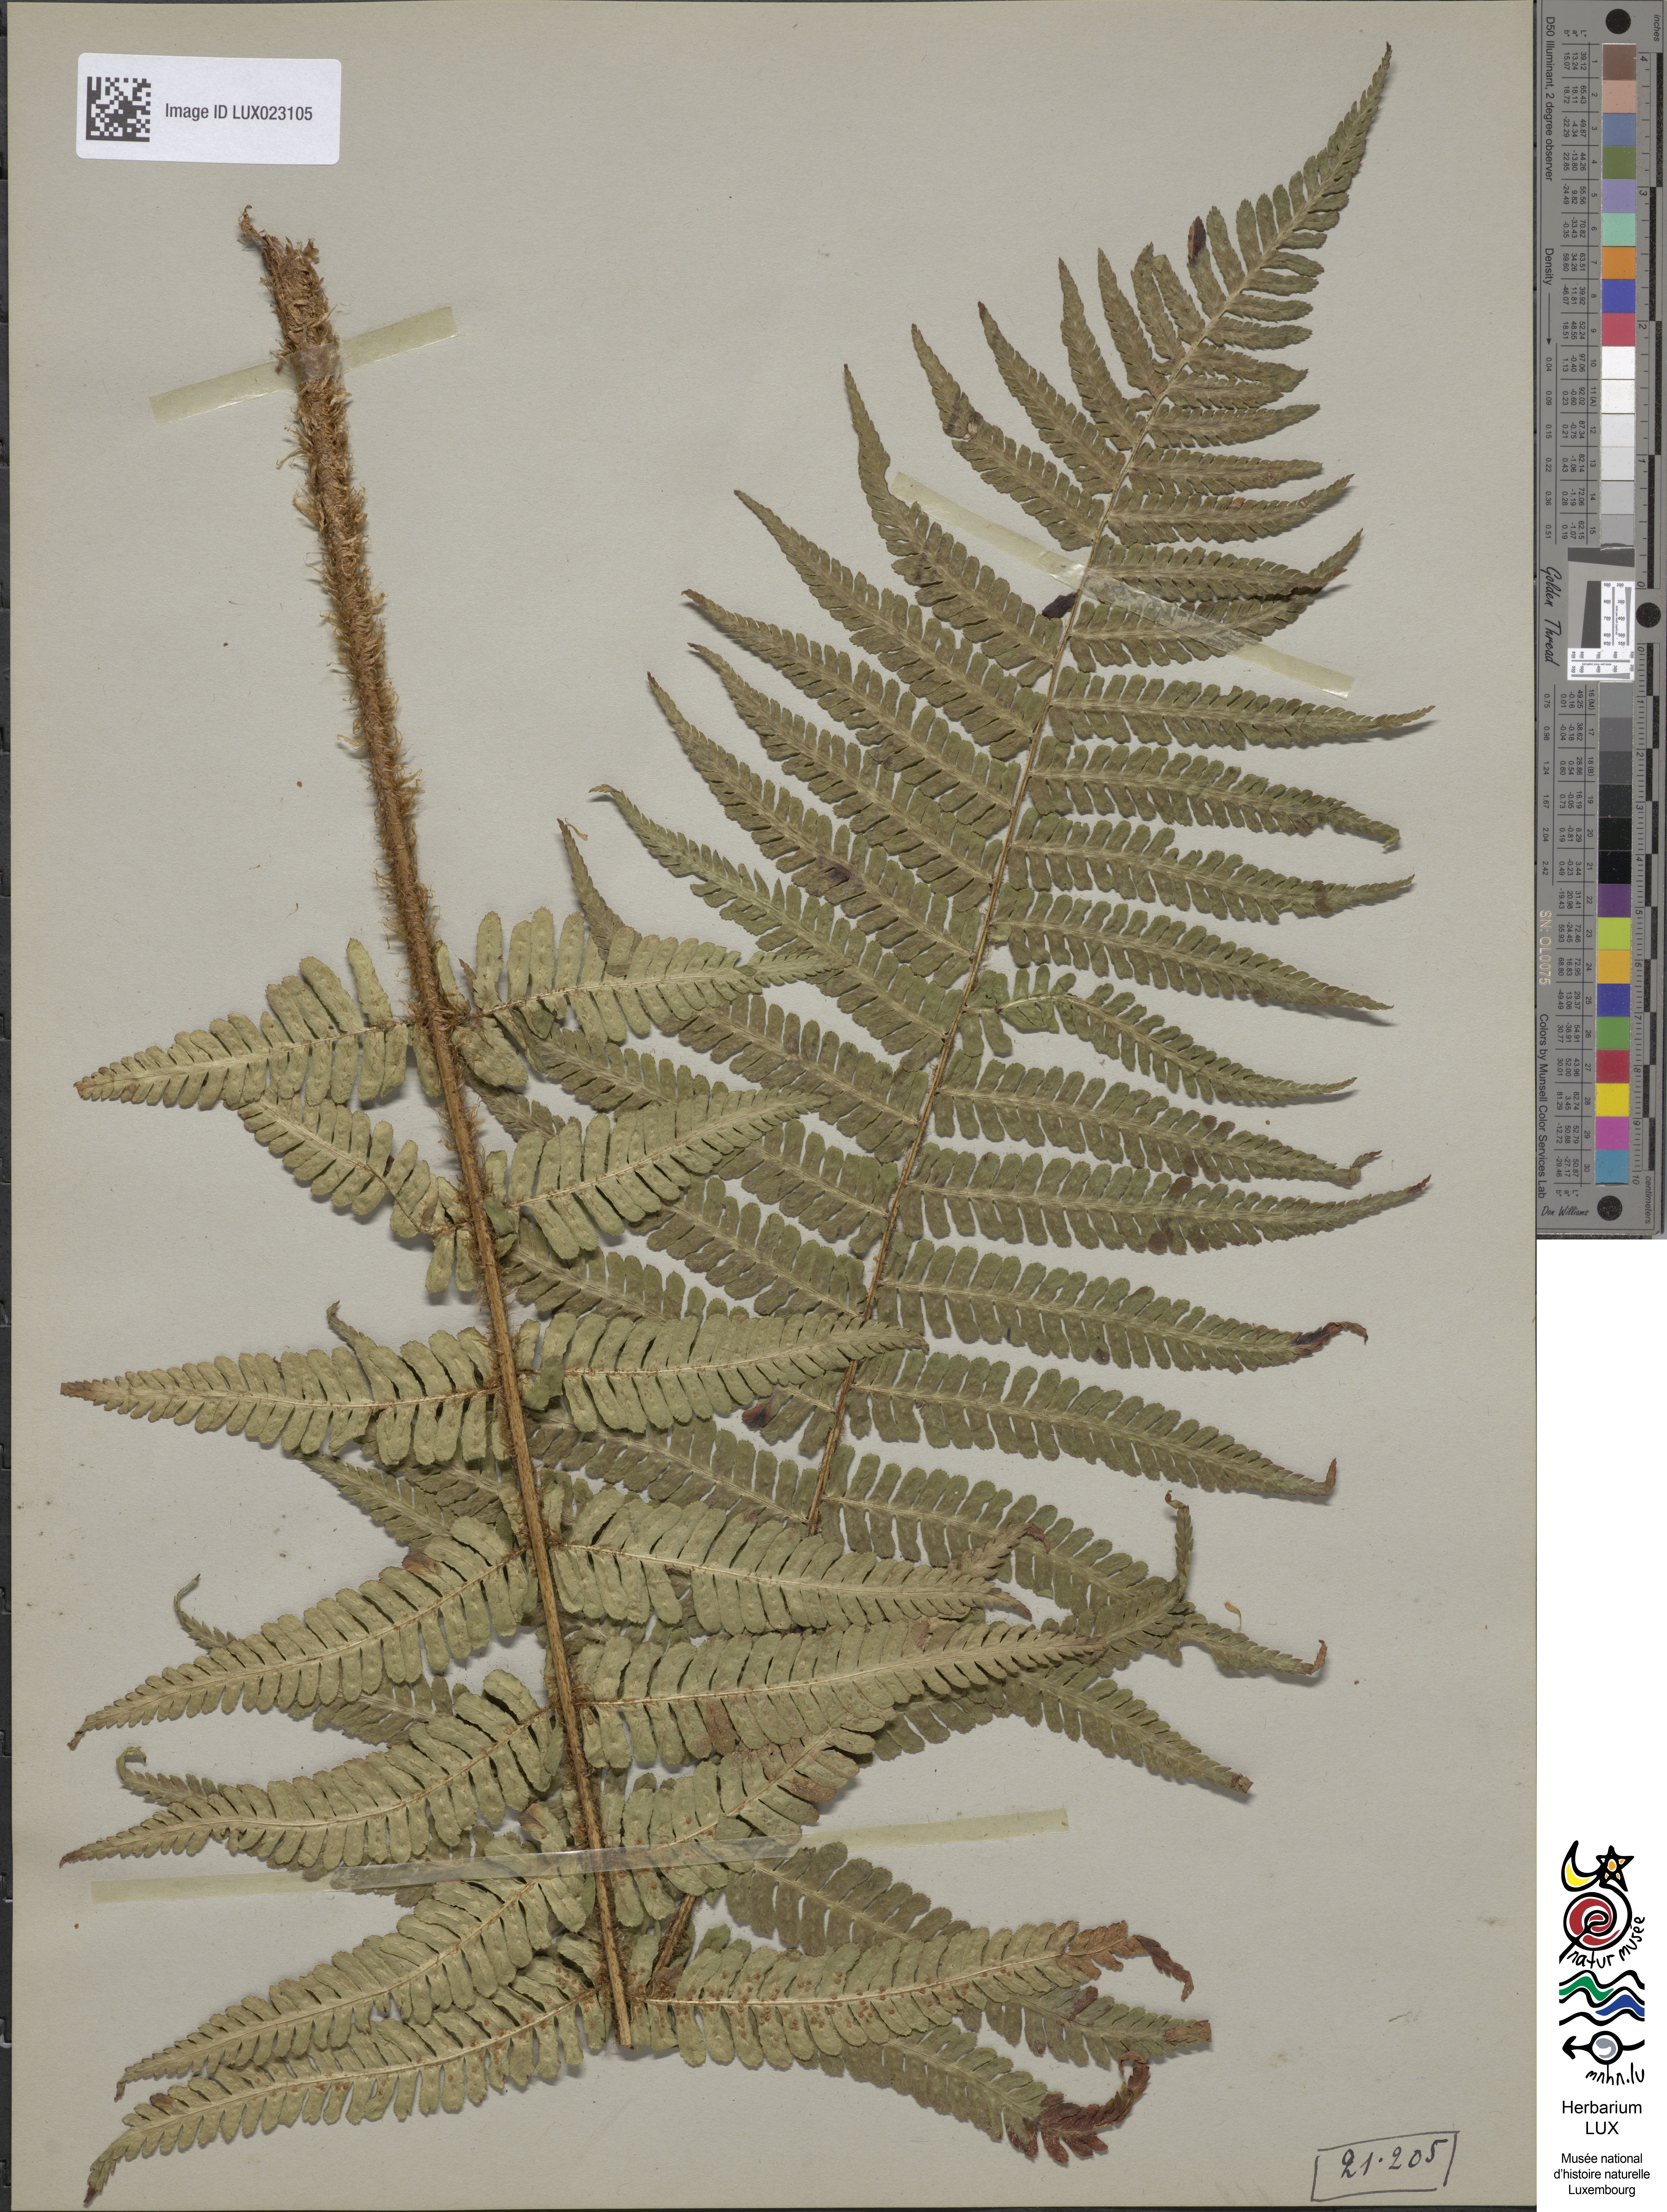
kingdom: Plantae
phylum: Tracheophyta
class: Polypodiopsida
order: Polypodiales
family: Dryopteridaceae
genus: Dryopteris
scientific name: Dryopteris borreri
